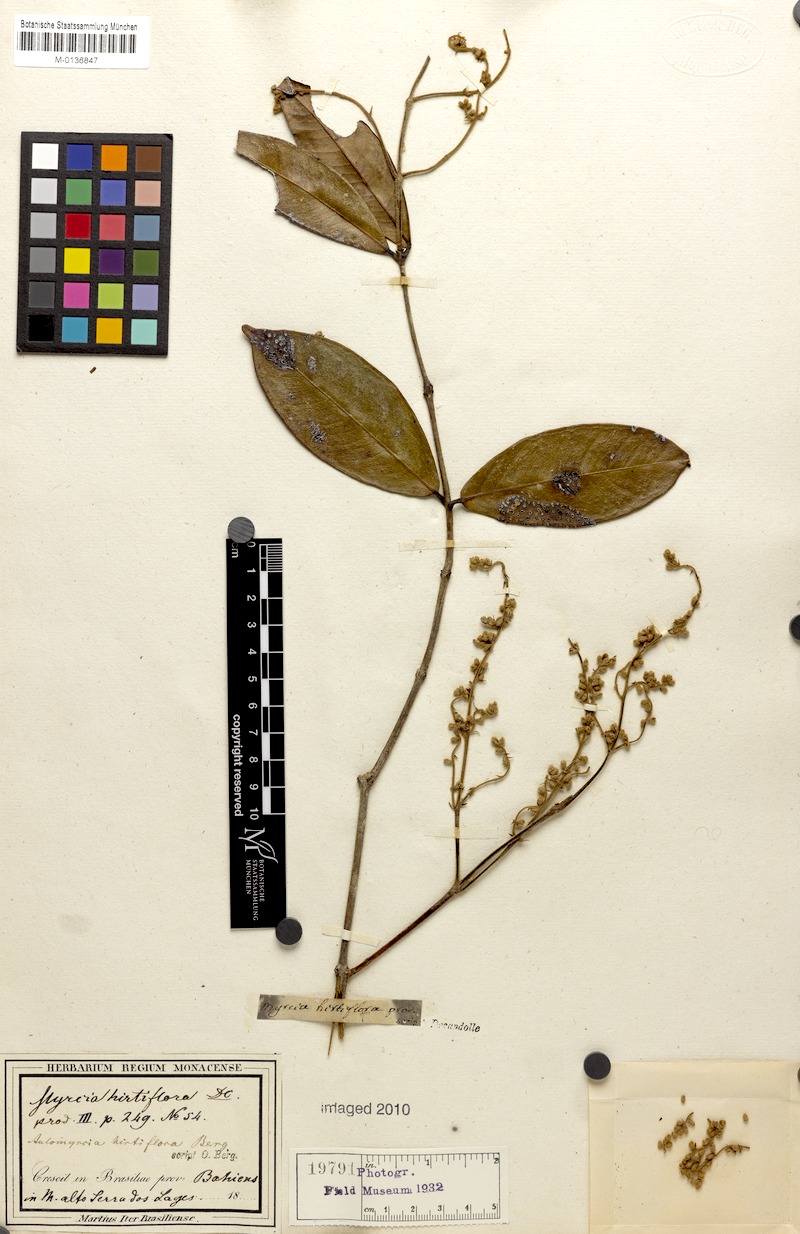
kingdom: Plantae
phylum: Tracheophyta
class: Magnoliopsida
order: Myrtales
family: Myrtaceae
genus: Myrcia
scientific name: Myrcia tomentosa
